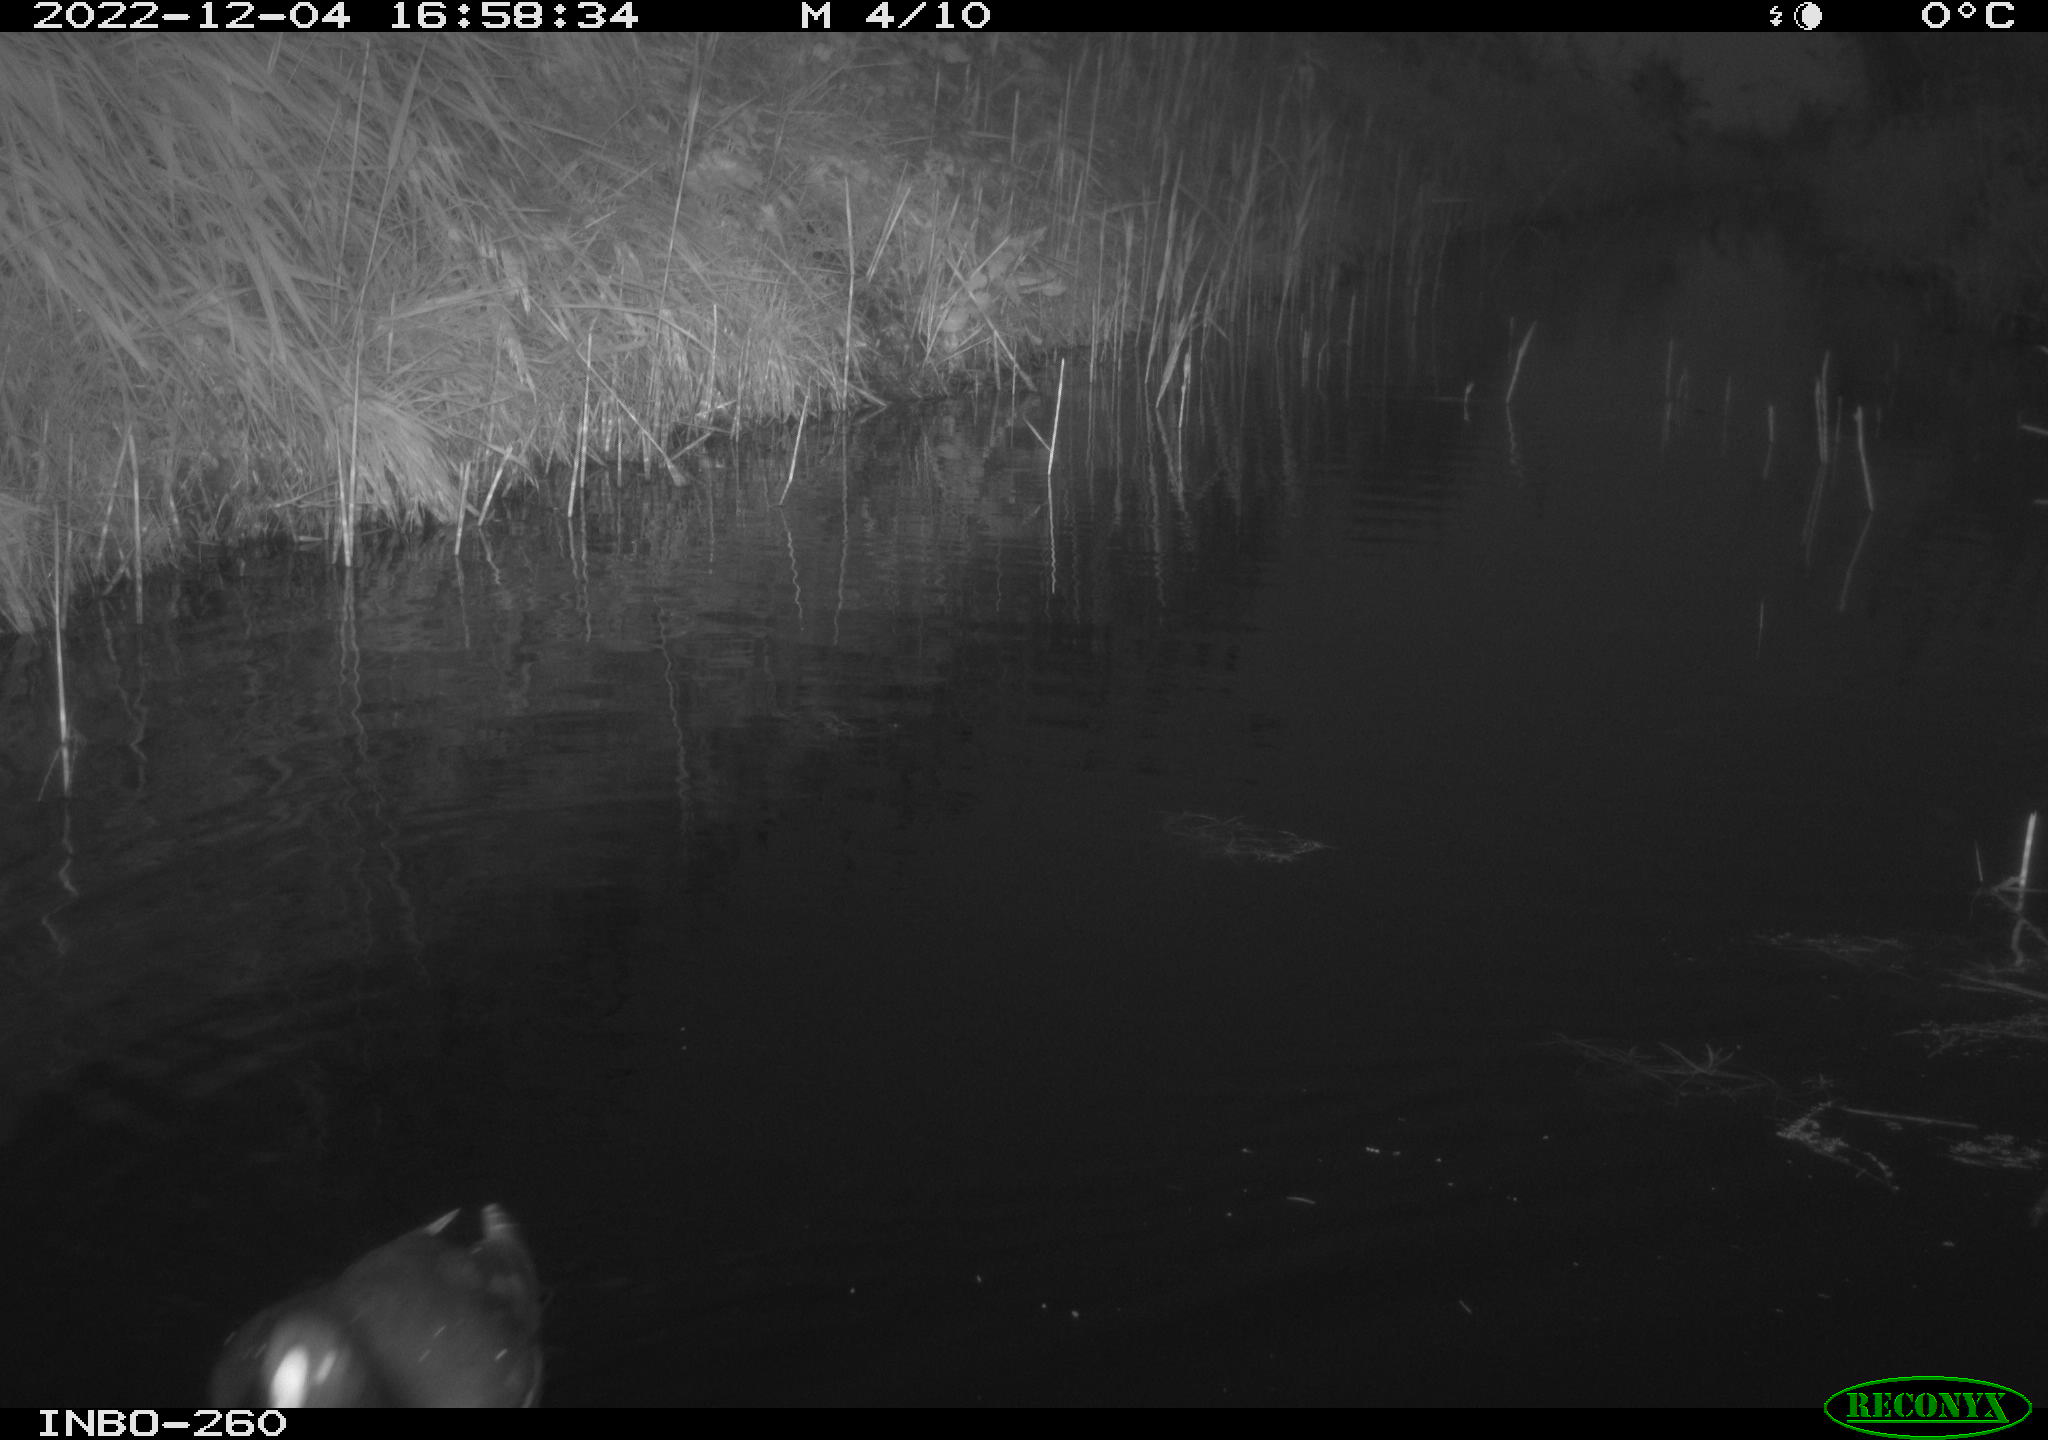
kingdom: Animalia
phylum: Chordata
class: Aves
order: Gruiformes
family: Rallidae
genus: Fulica
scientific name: Fulica atra
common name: Eurasian coot
